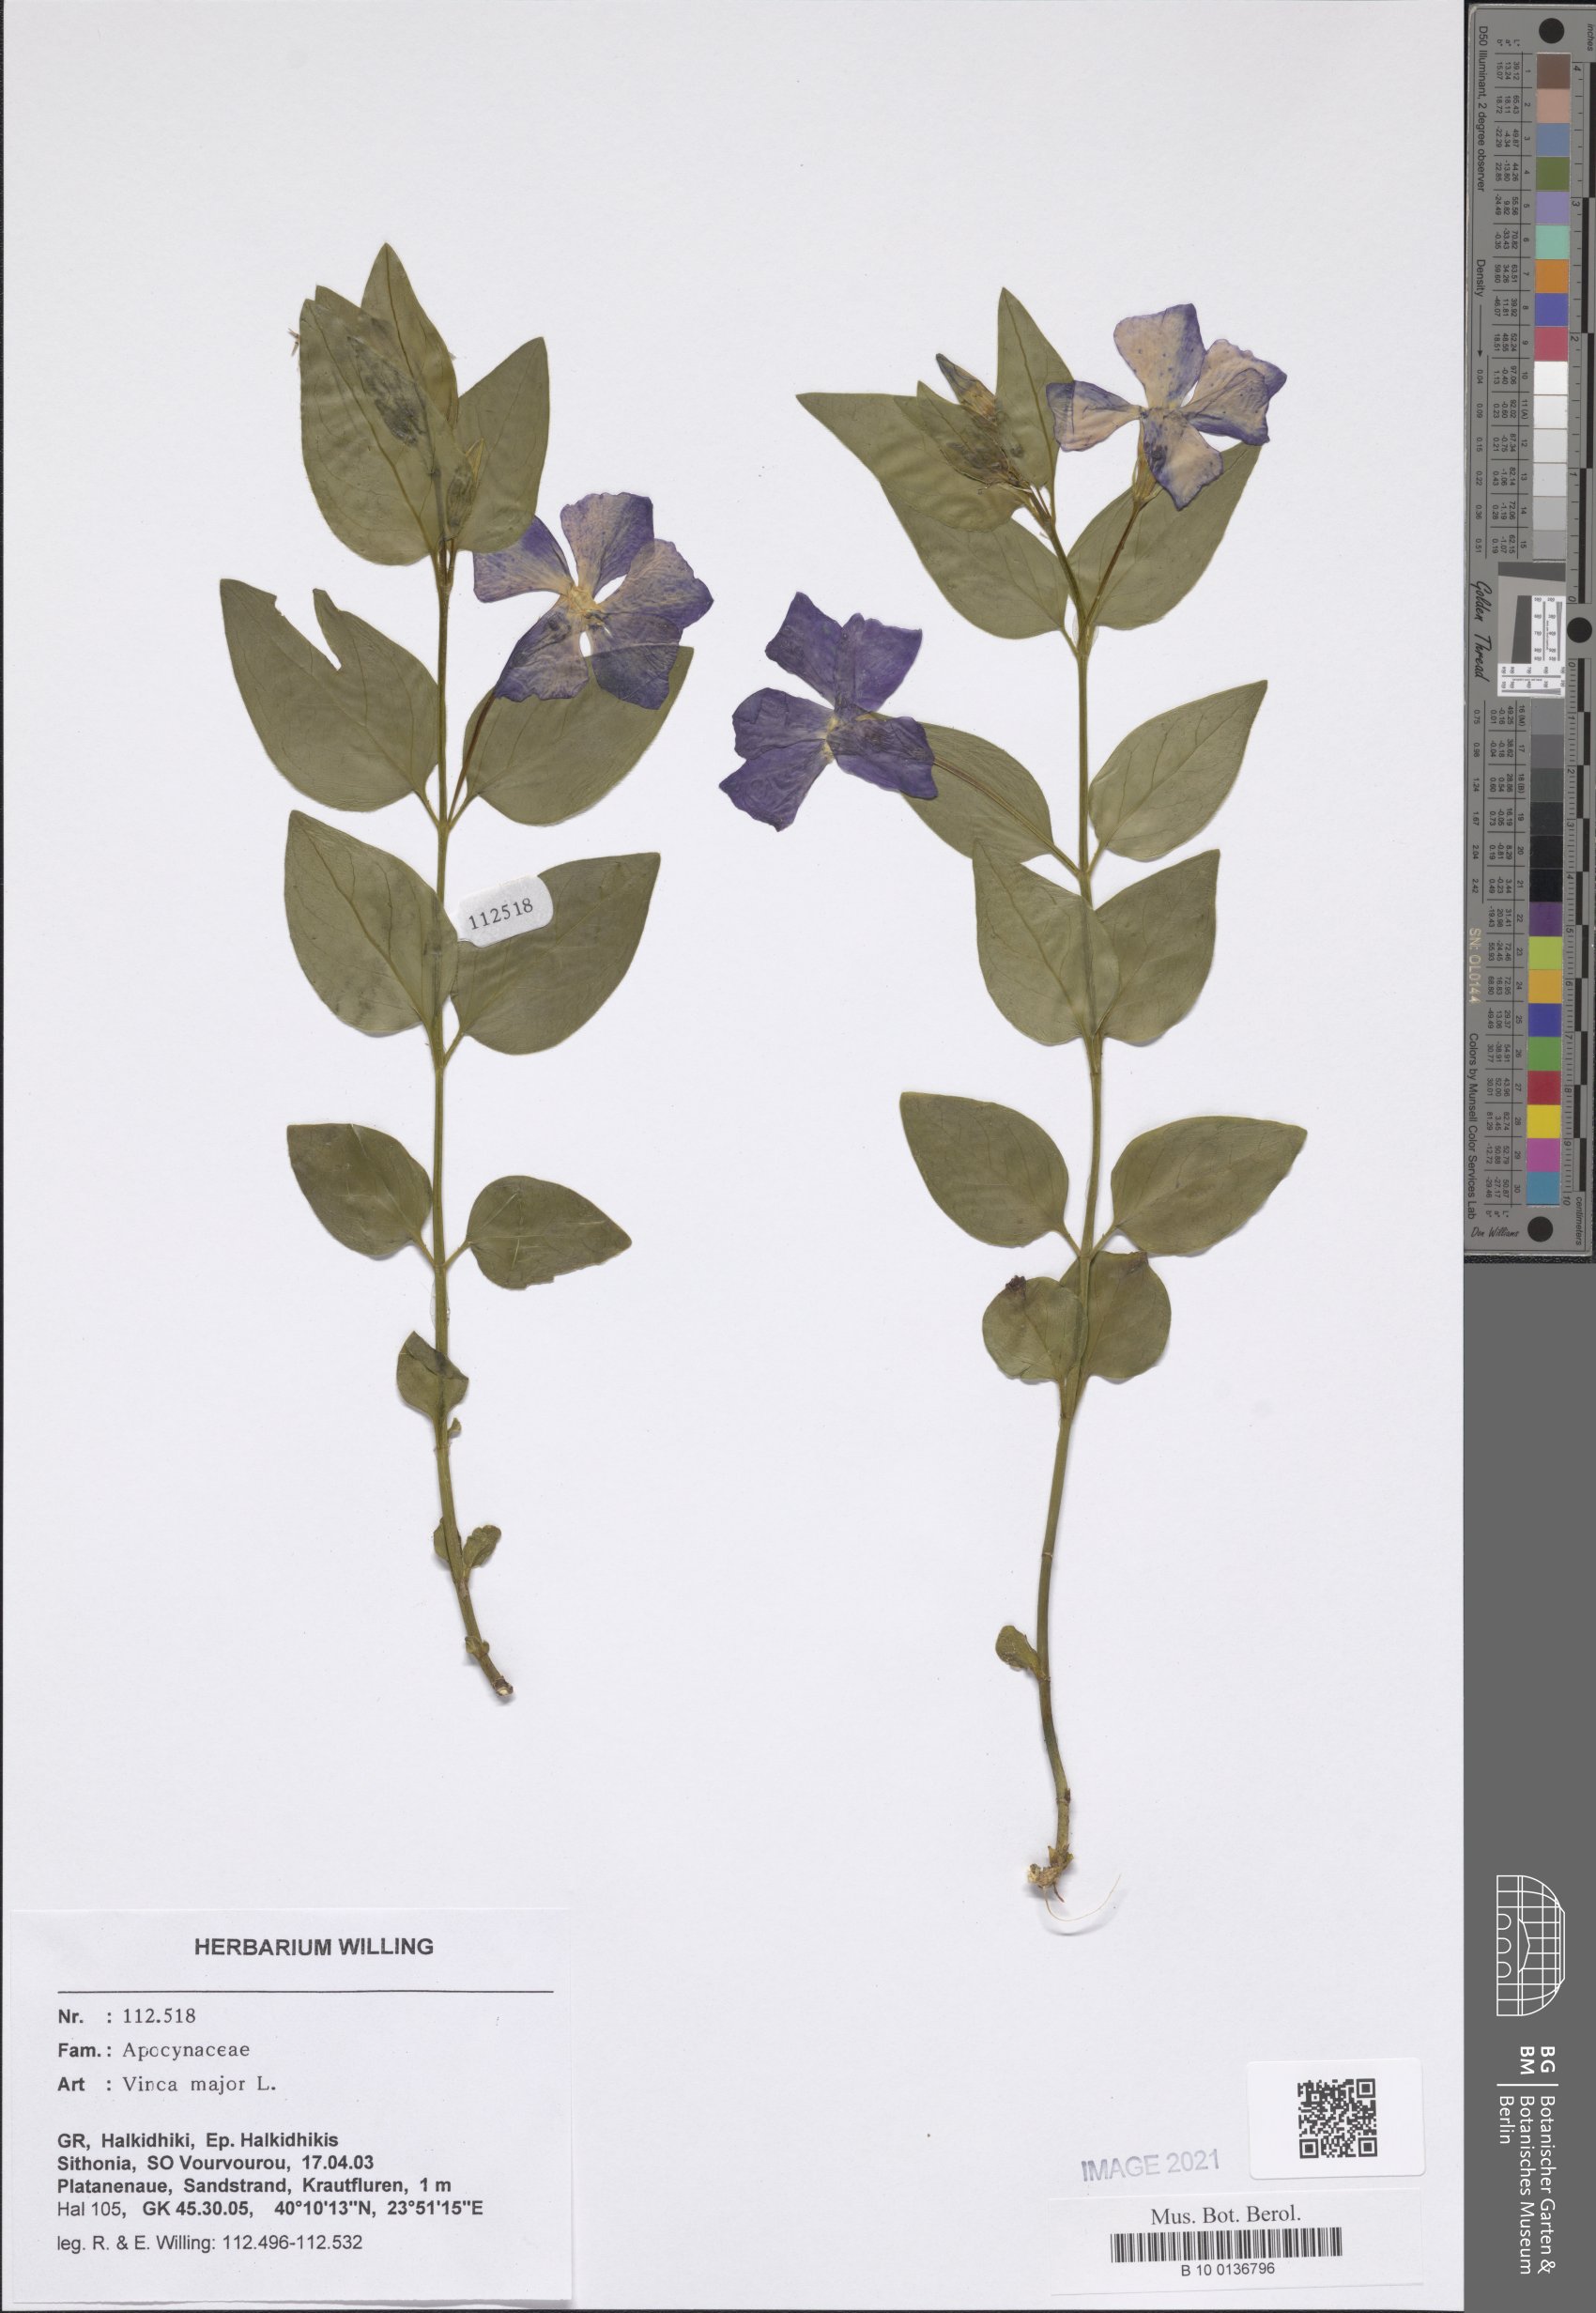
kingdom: Plantae
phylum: Tracheophyta
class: Magnoliopsida
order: Gentianales
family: Apocynaceae
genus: Vinca
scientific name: Vinca major
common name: Greater periwinkle
